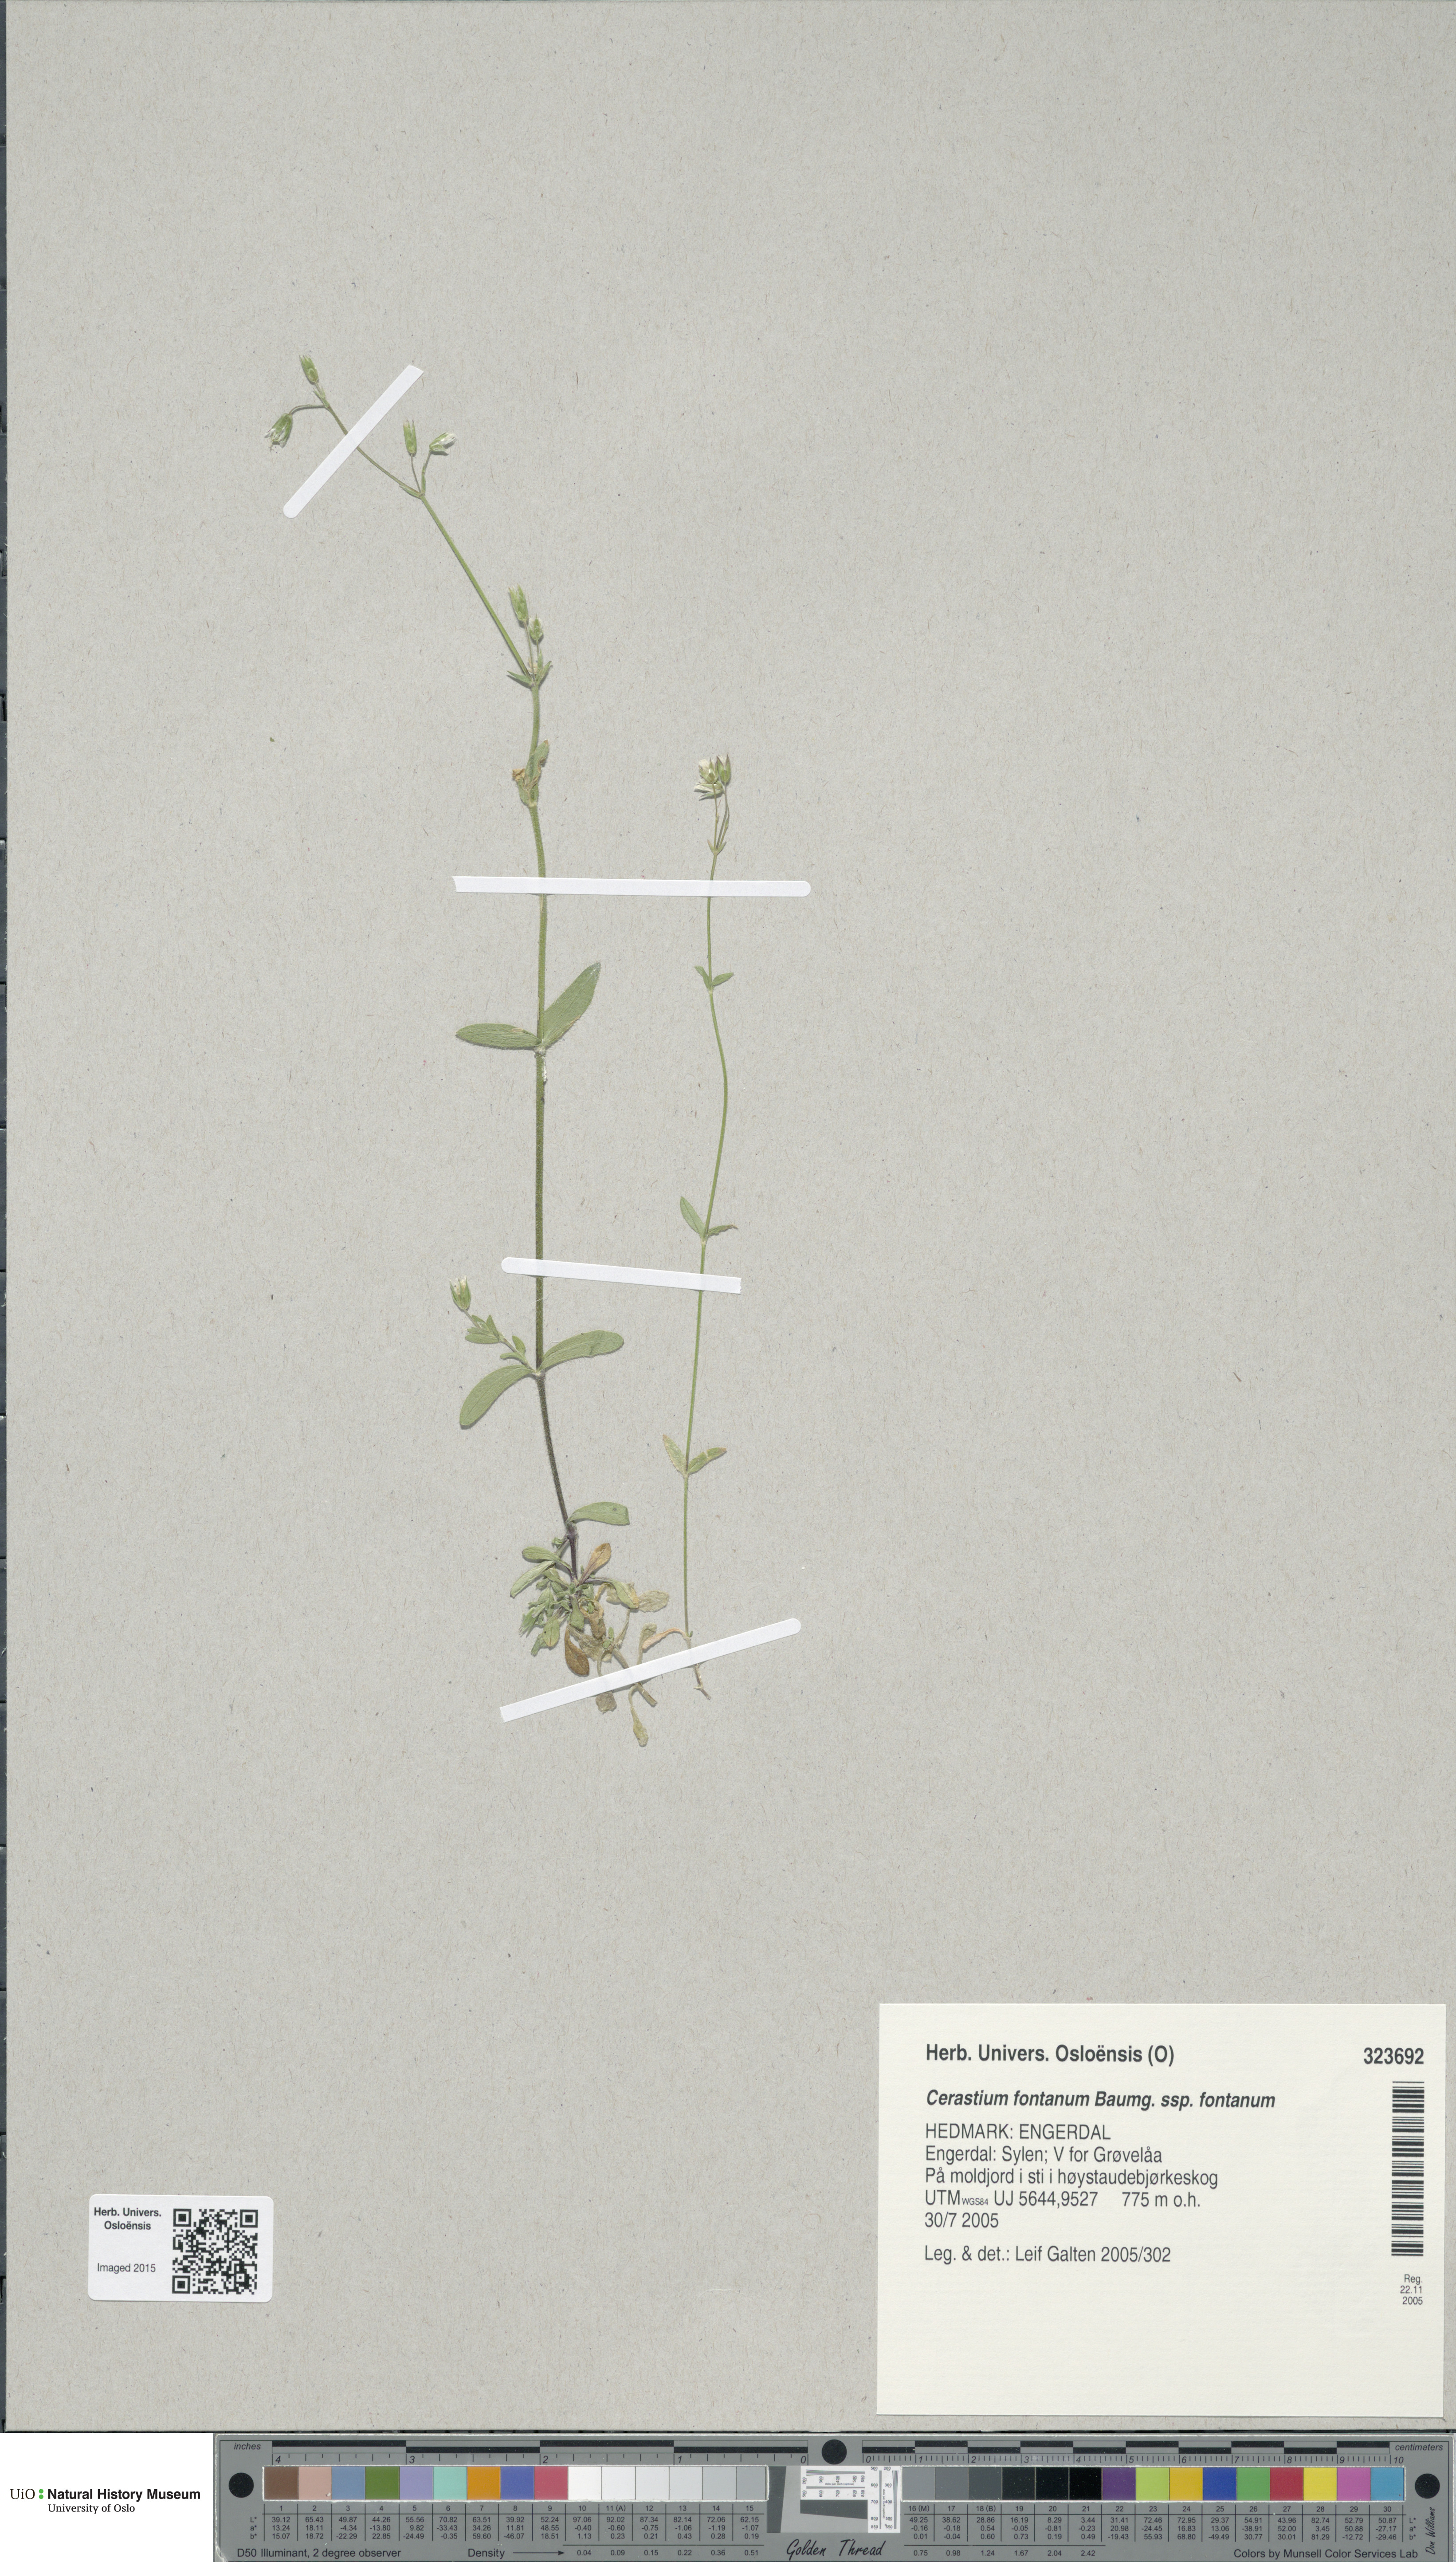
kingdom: Plantae
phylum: Tracheophyta
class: Magnoliopsida
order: Caryophyllales
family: Caryophyllaceae
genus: Cerastium
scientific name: Cerastium fontanum
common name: Common mouse-ear
